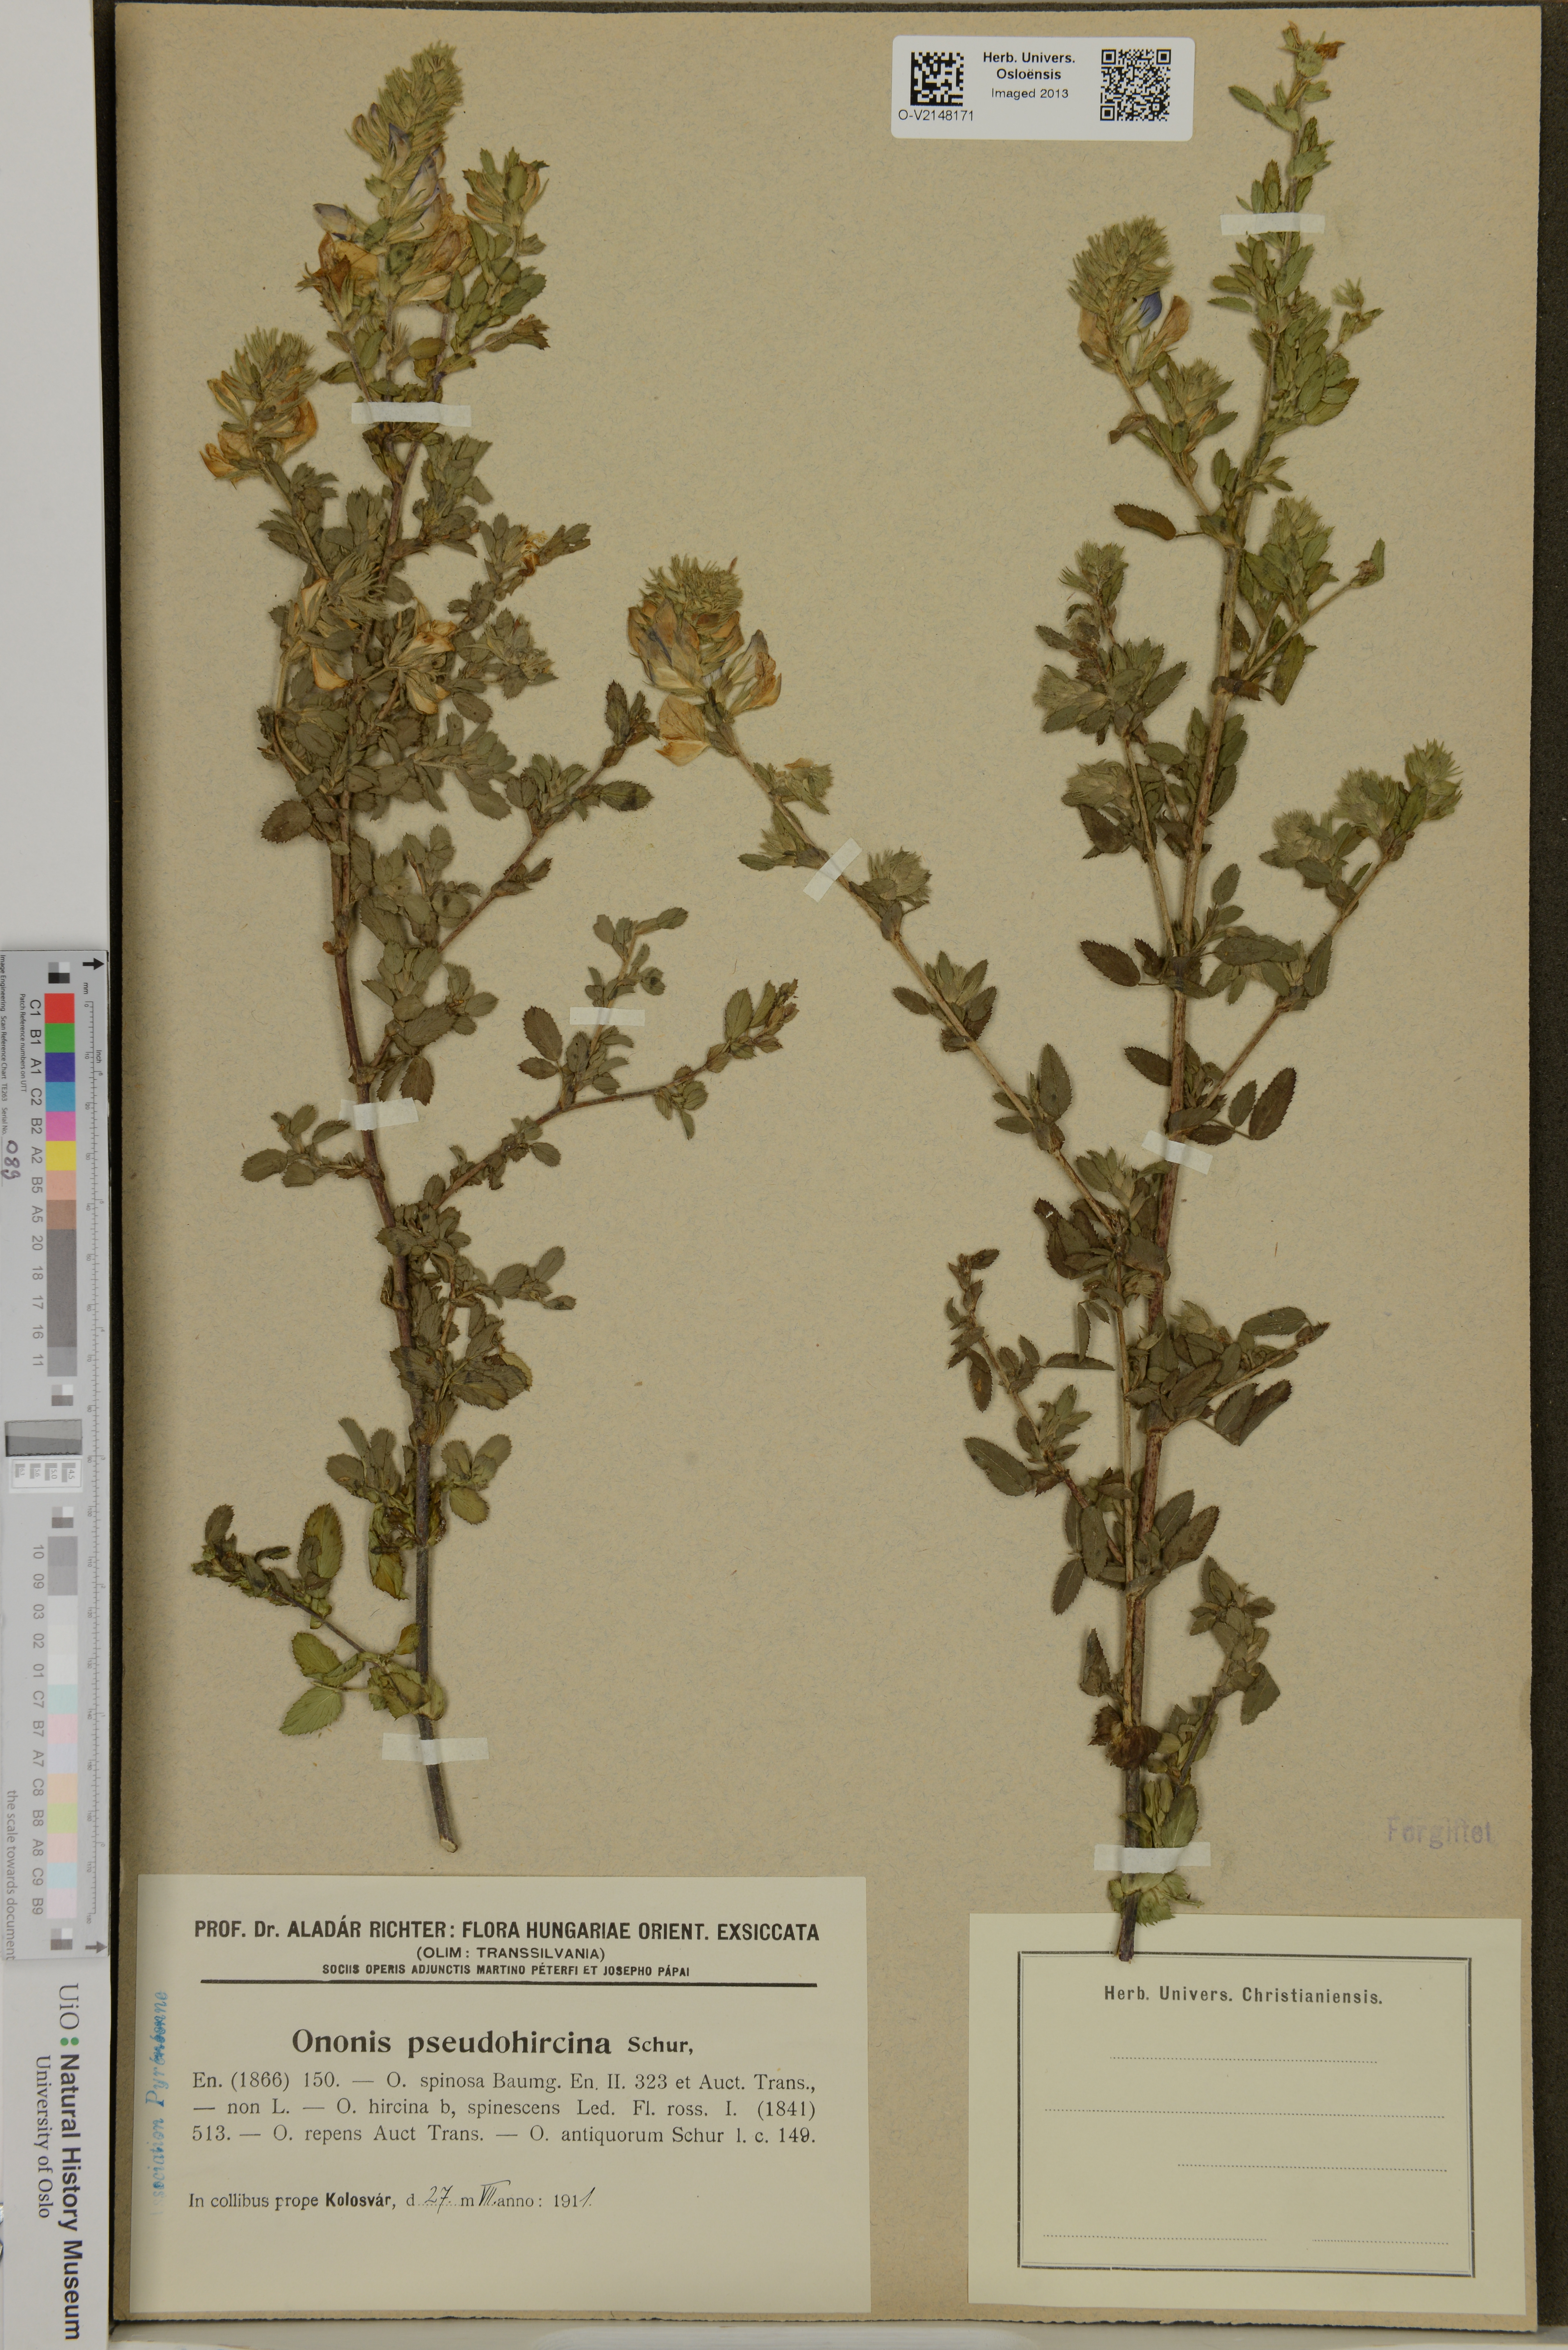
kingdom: Plantae
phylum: Tracheophyta
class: Magnoliopsida
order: Fabales
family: Fabaceae
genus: Ononis
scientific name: Ononis spinosa
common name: Spiny restharrow
